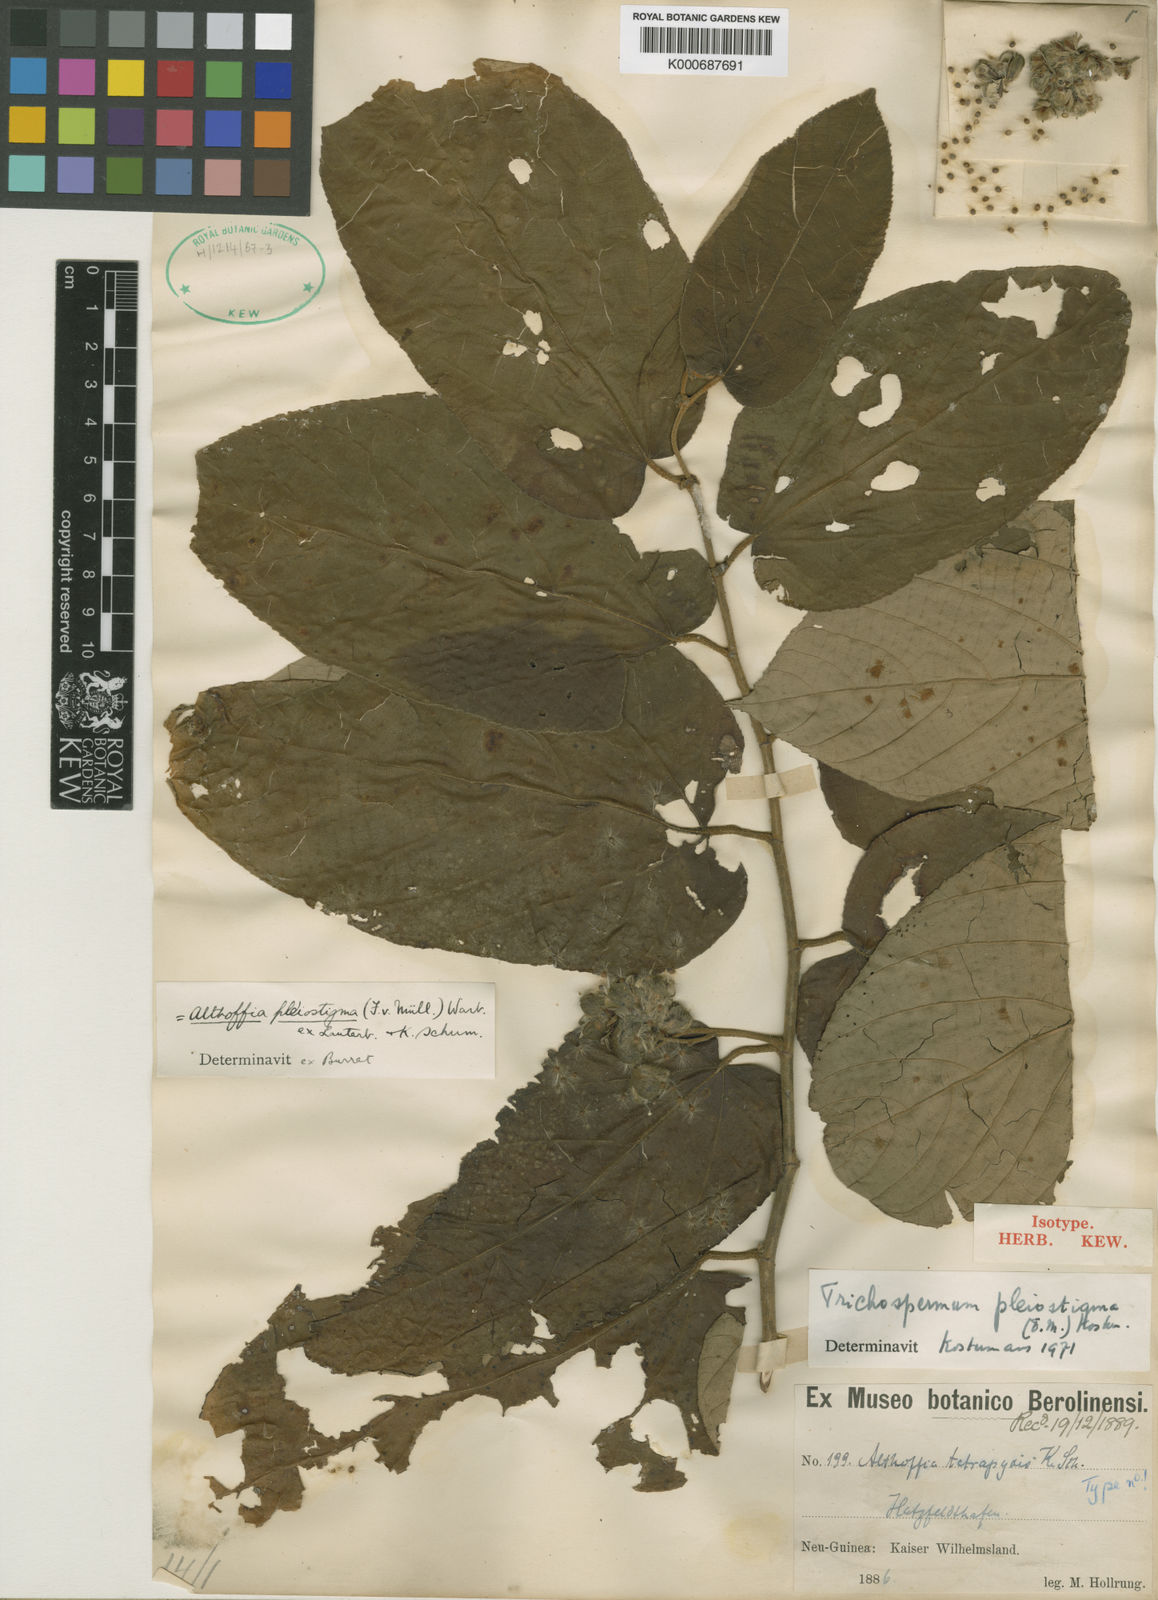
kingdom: Plantae
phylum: Tracheophyta
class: Magnoliopsida
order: Malvales
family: Malvaceae
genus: Trichospermum
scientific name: Trichospermum pleiostigma
